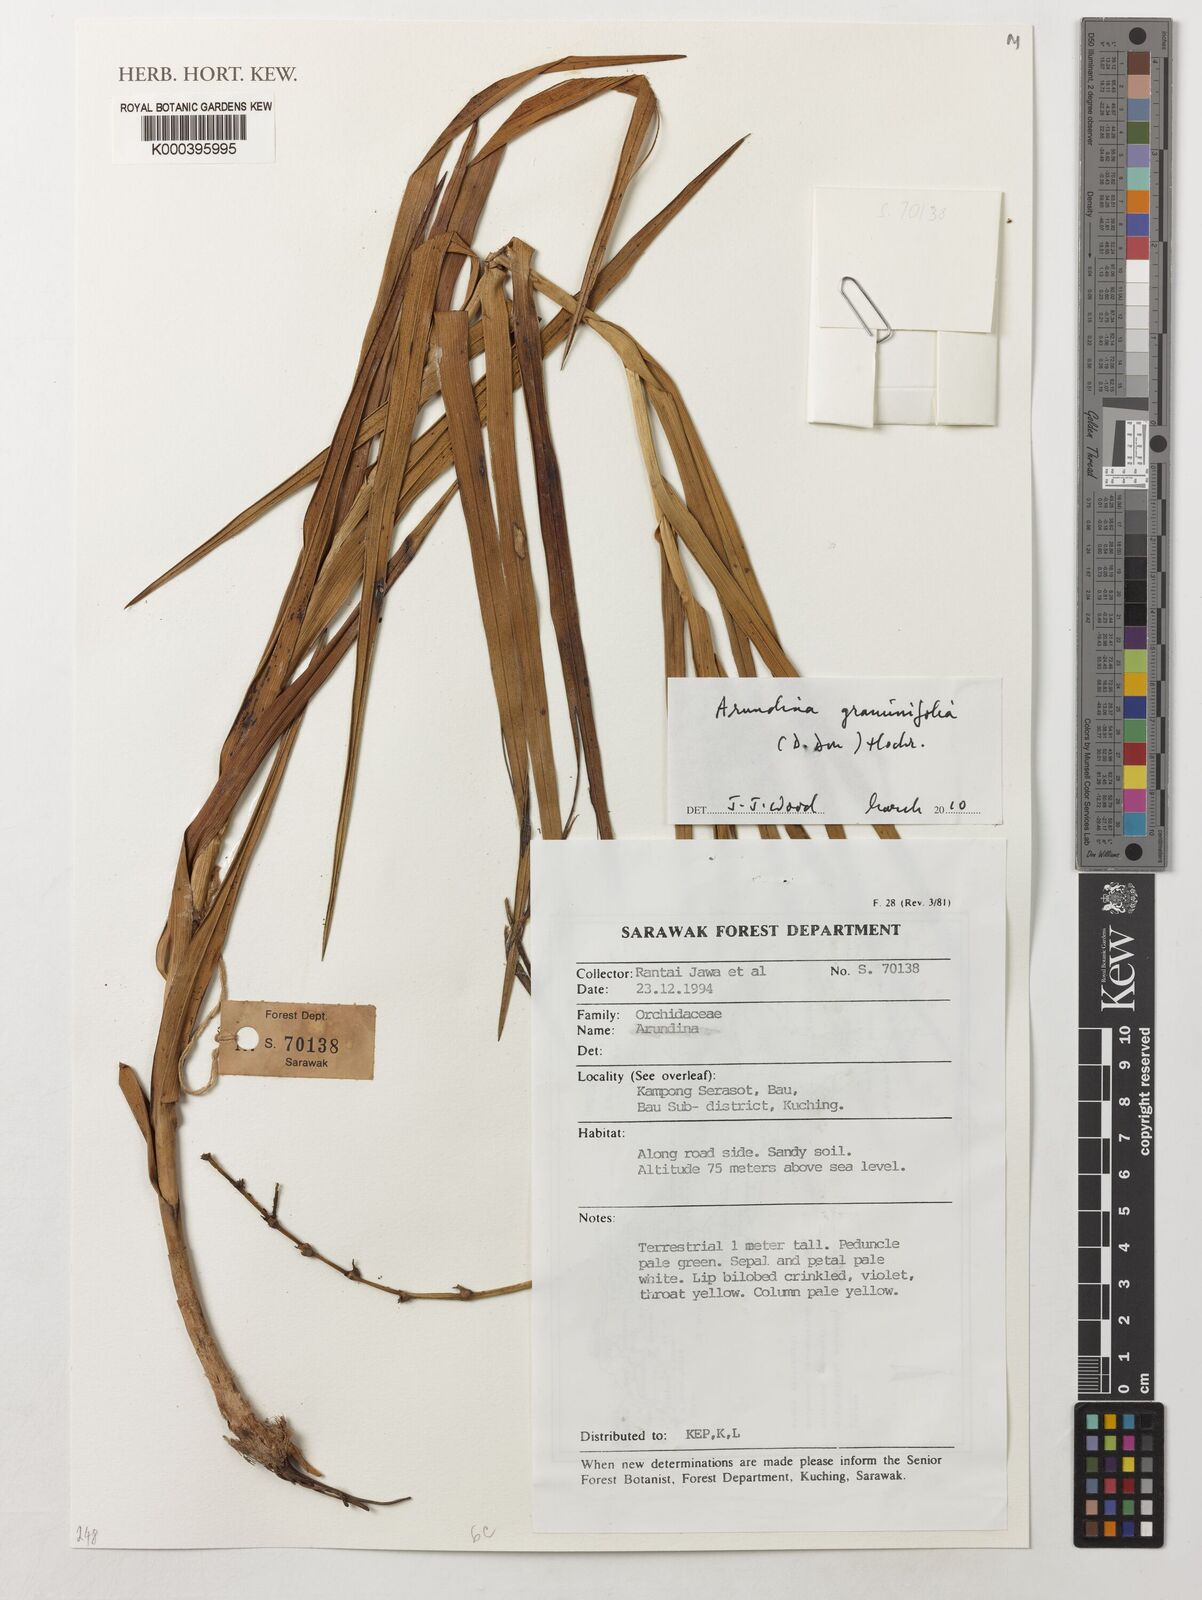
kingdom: Plantae
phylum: Tracheophyta
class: Liliopsida
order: Asparagales
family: Orchidaceae
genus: Arundina
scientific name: Arundina graminifolia
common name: Bamboo orchid
